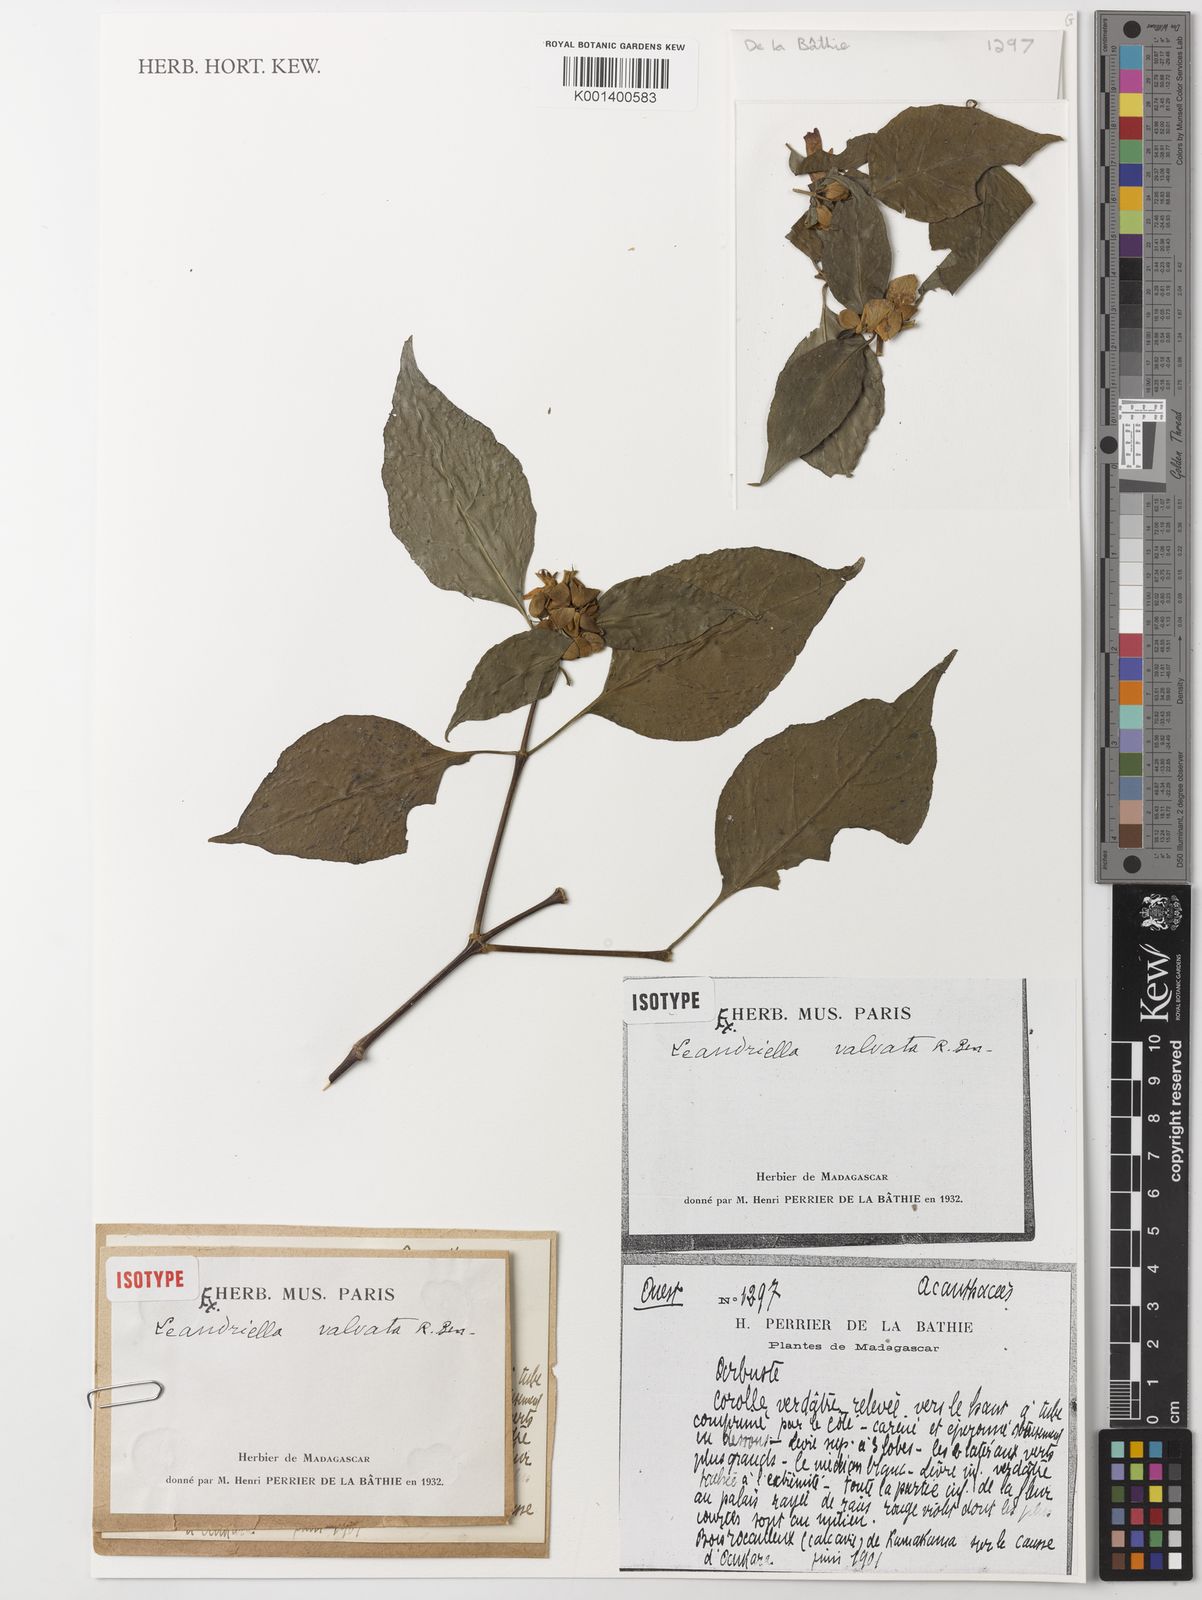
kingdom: Plantae
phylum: Tracheophyta
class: Magnoliopsida
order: Lamiales
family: Acanthaceae
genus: Leandriella
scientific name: Leandriella valvata
